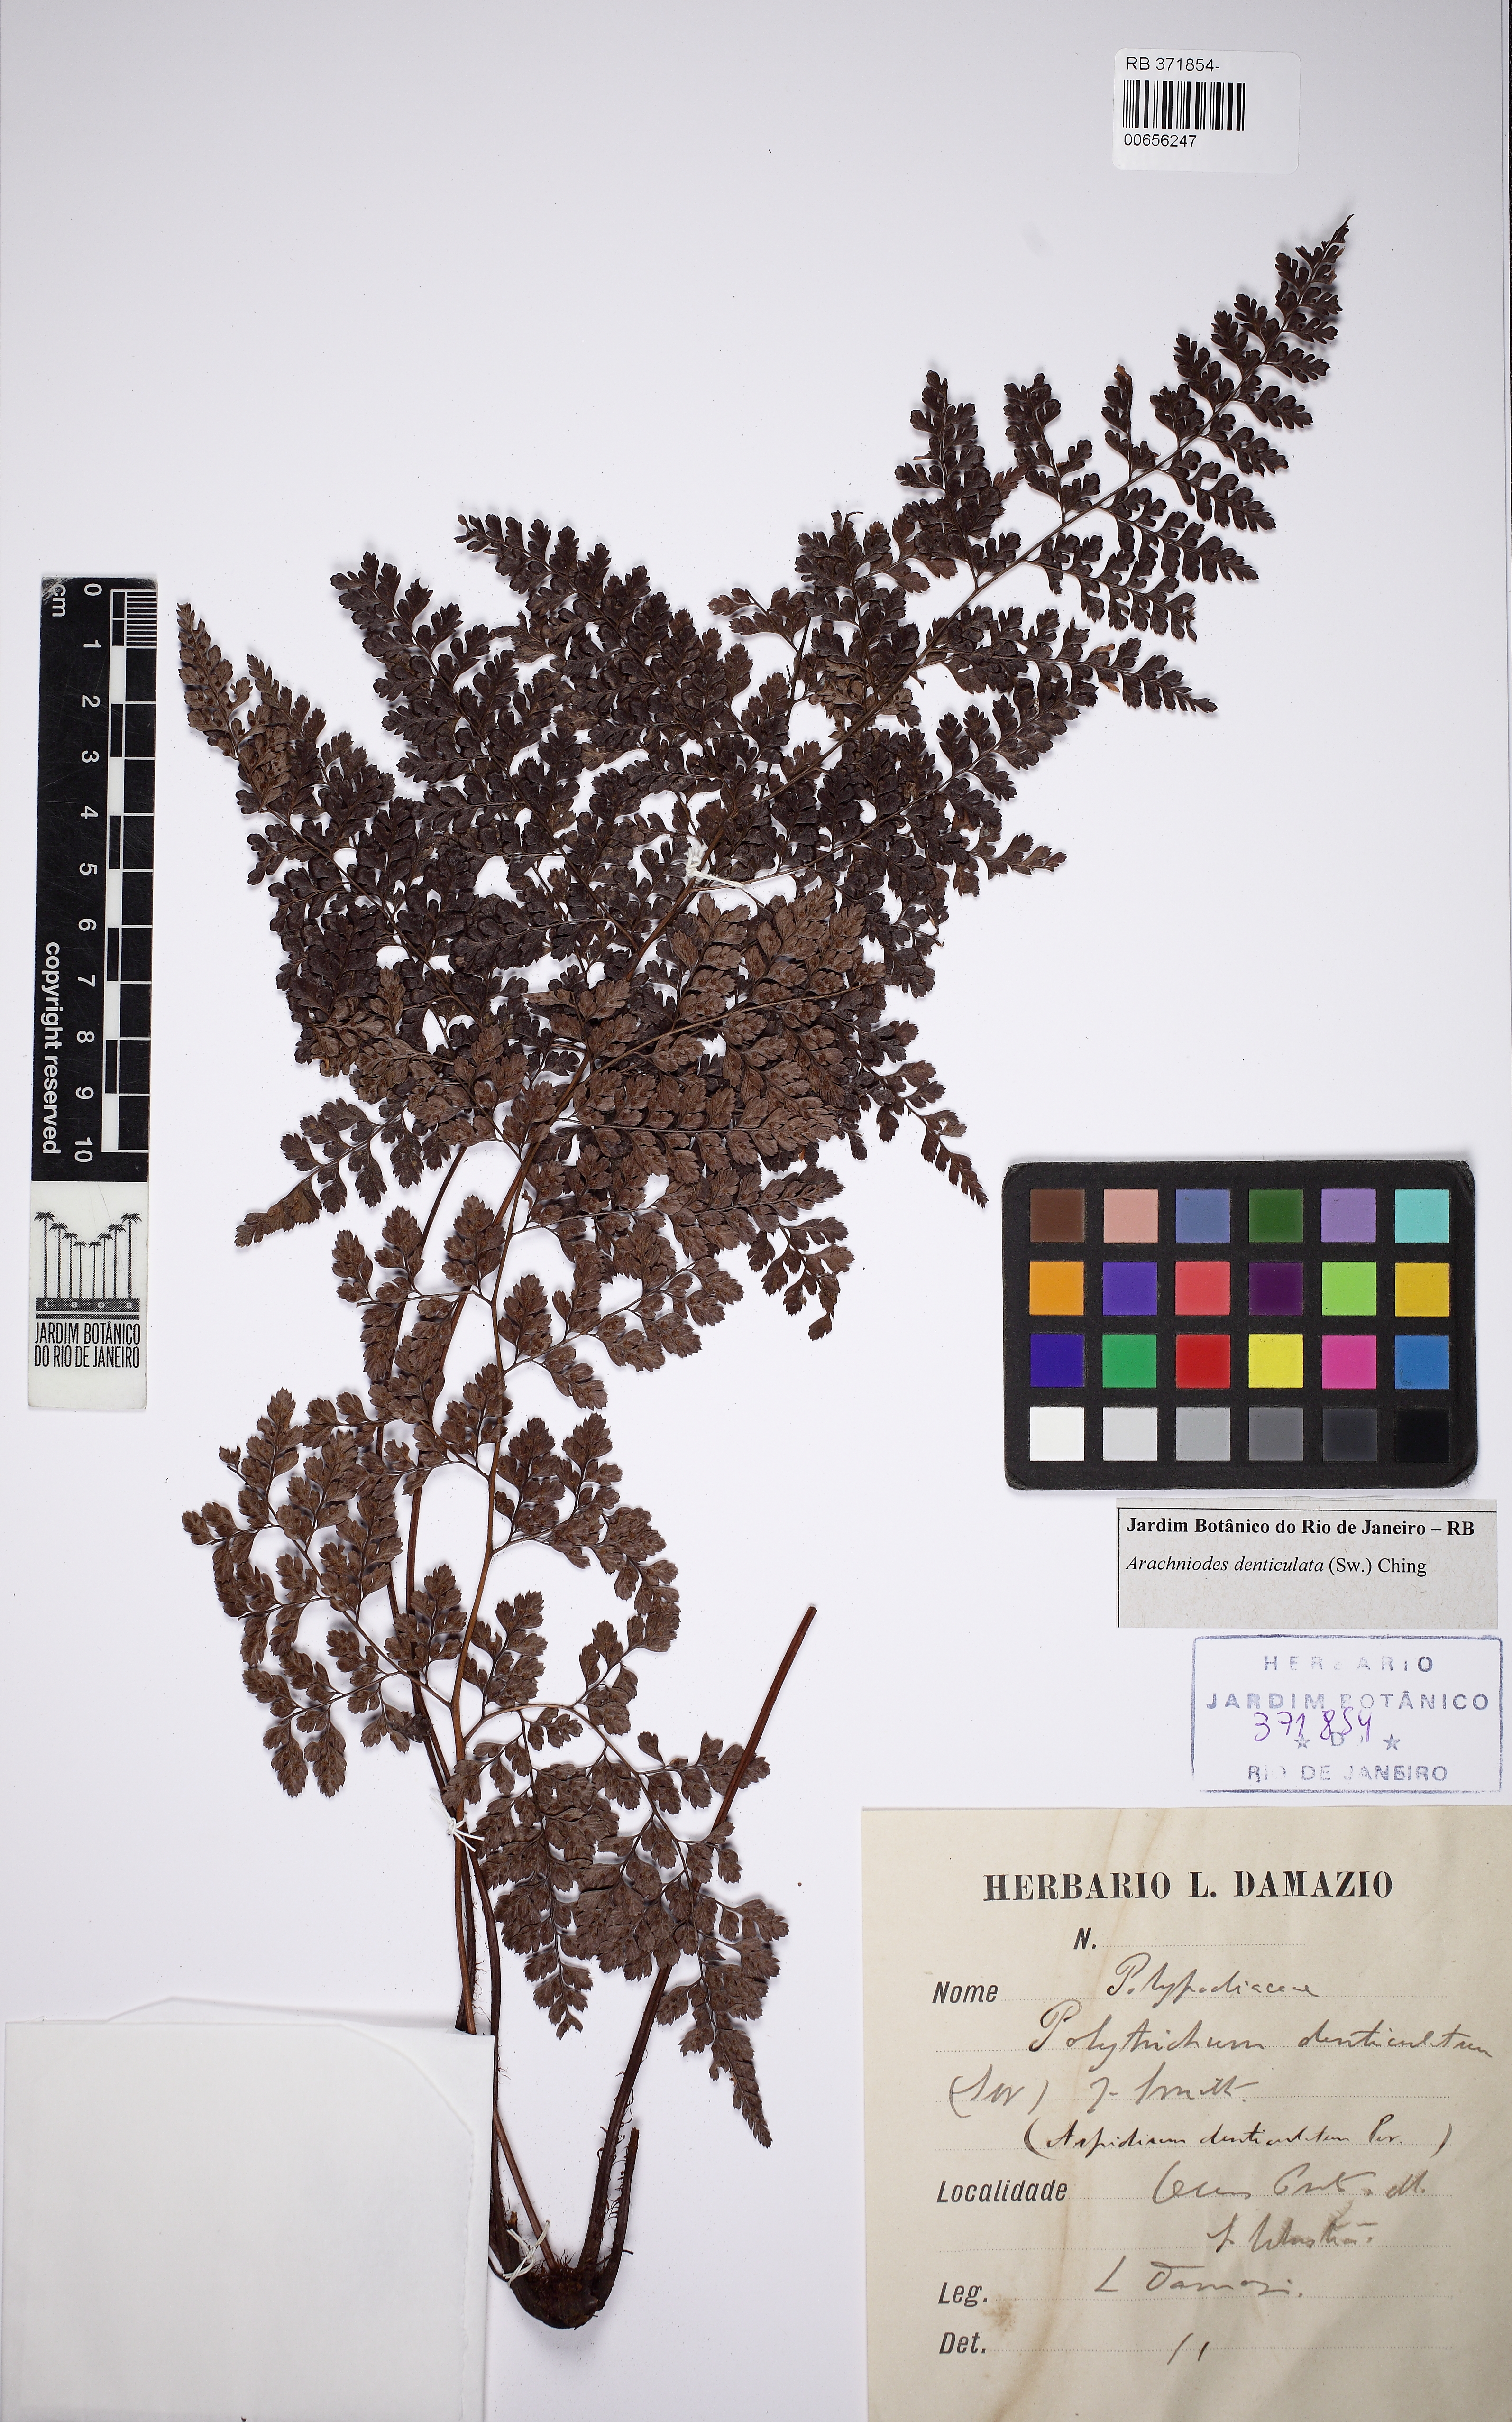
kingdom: Plantae
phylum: Tracheophyta
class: Polypodiopsida
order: Polypodiales
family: Dryopteridaceae
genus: Arachniodes
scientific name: Arachniodes denticulata
